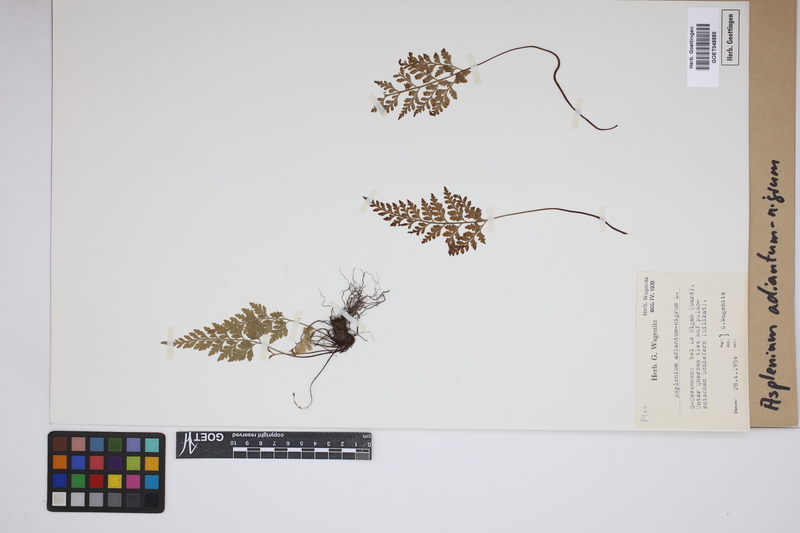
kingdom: Plantae
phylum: Tracheophyta
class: Polypodiopsida
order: Polypodiales
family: Aspleniaceae
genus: Asplenium
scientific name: Asplenium adiantum-nigrum
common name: Black spleenwort
